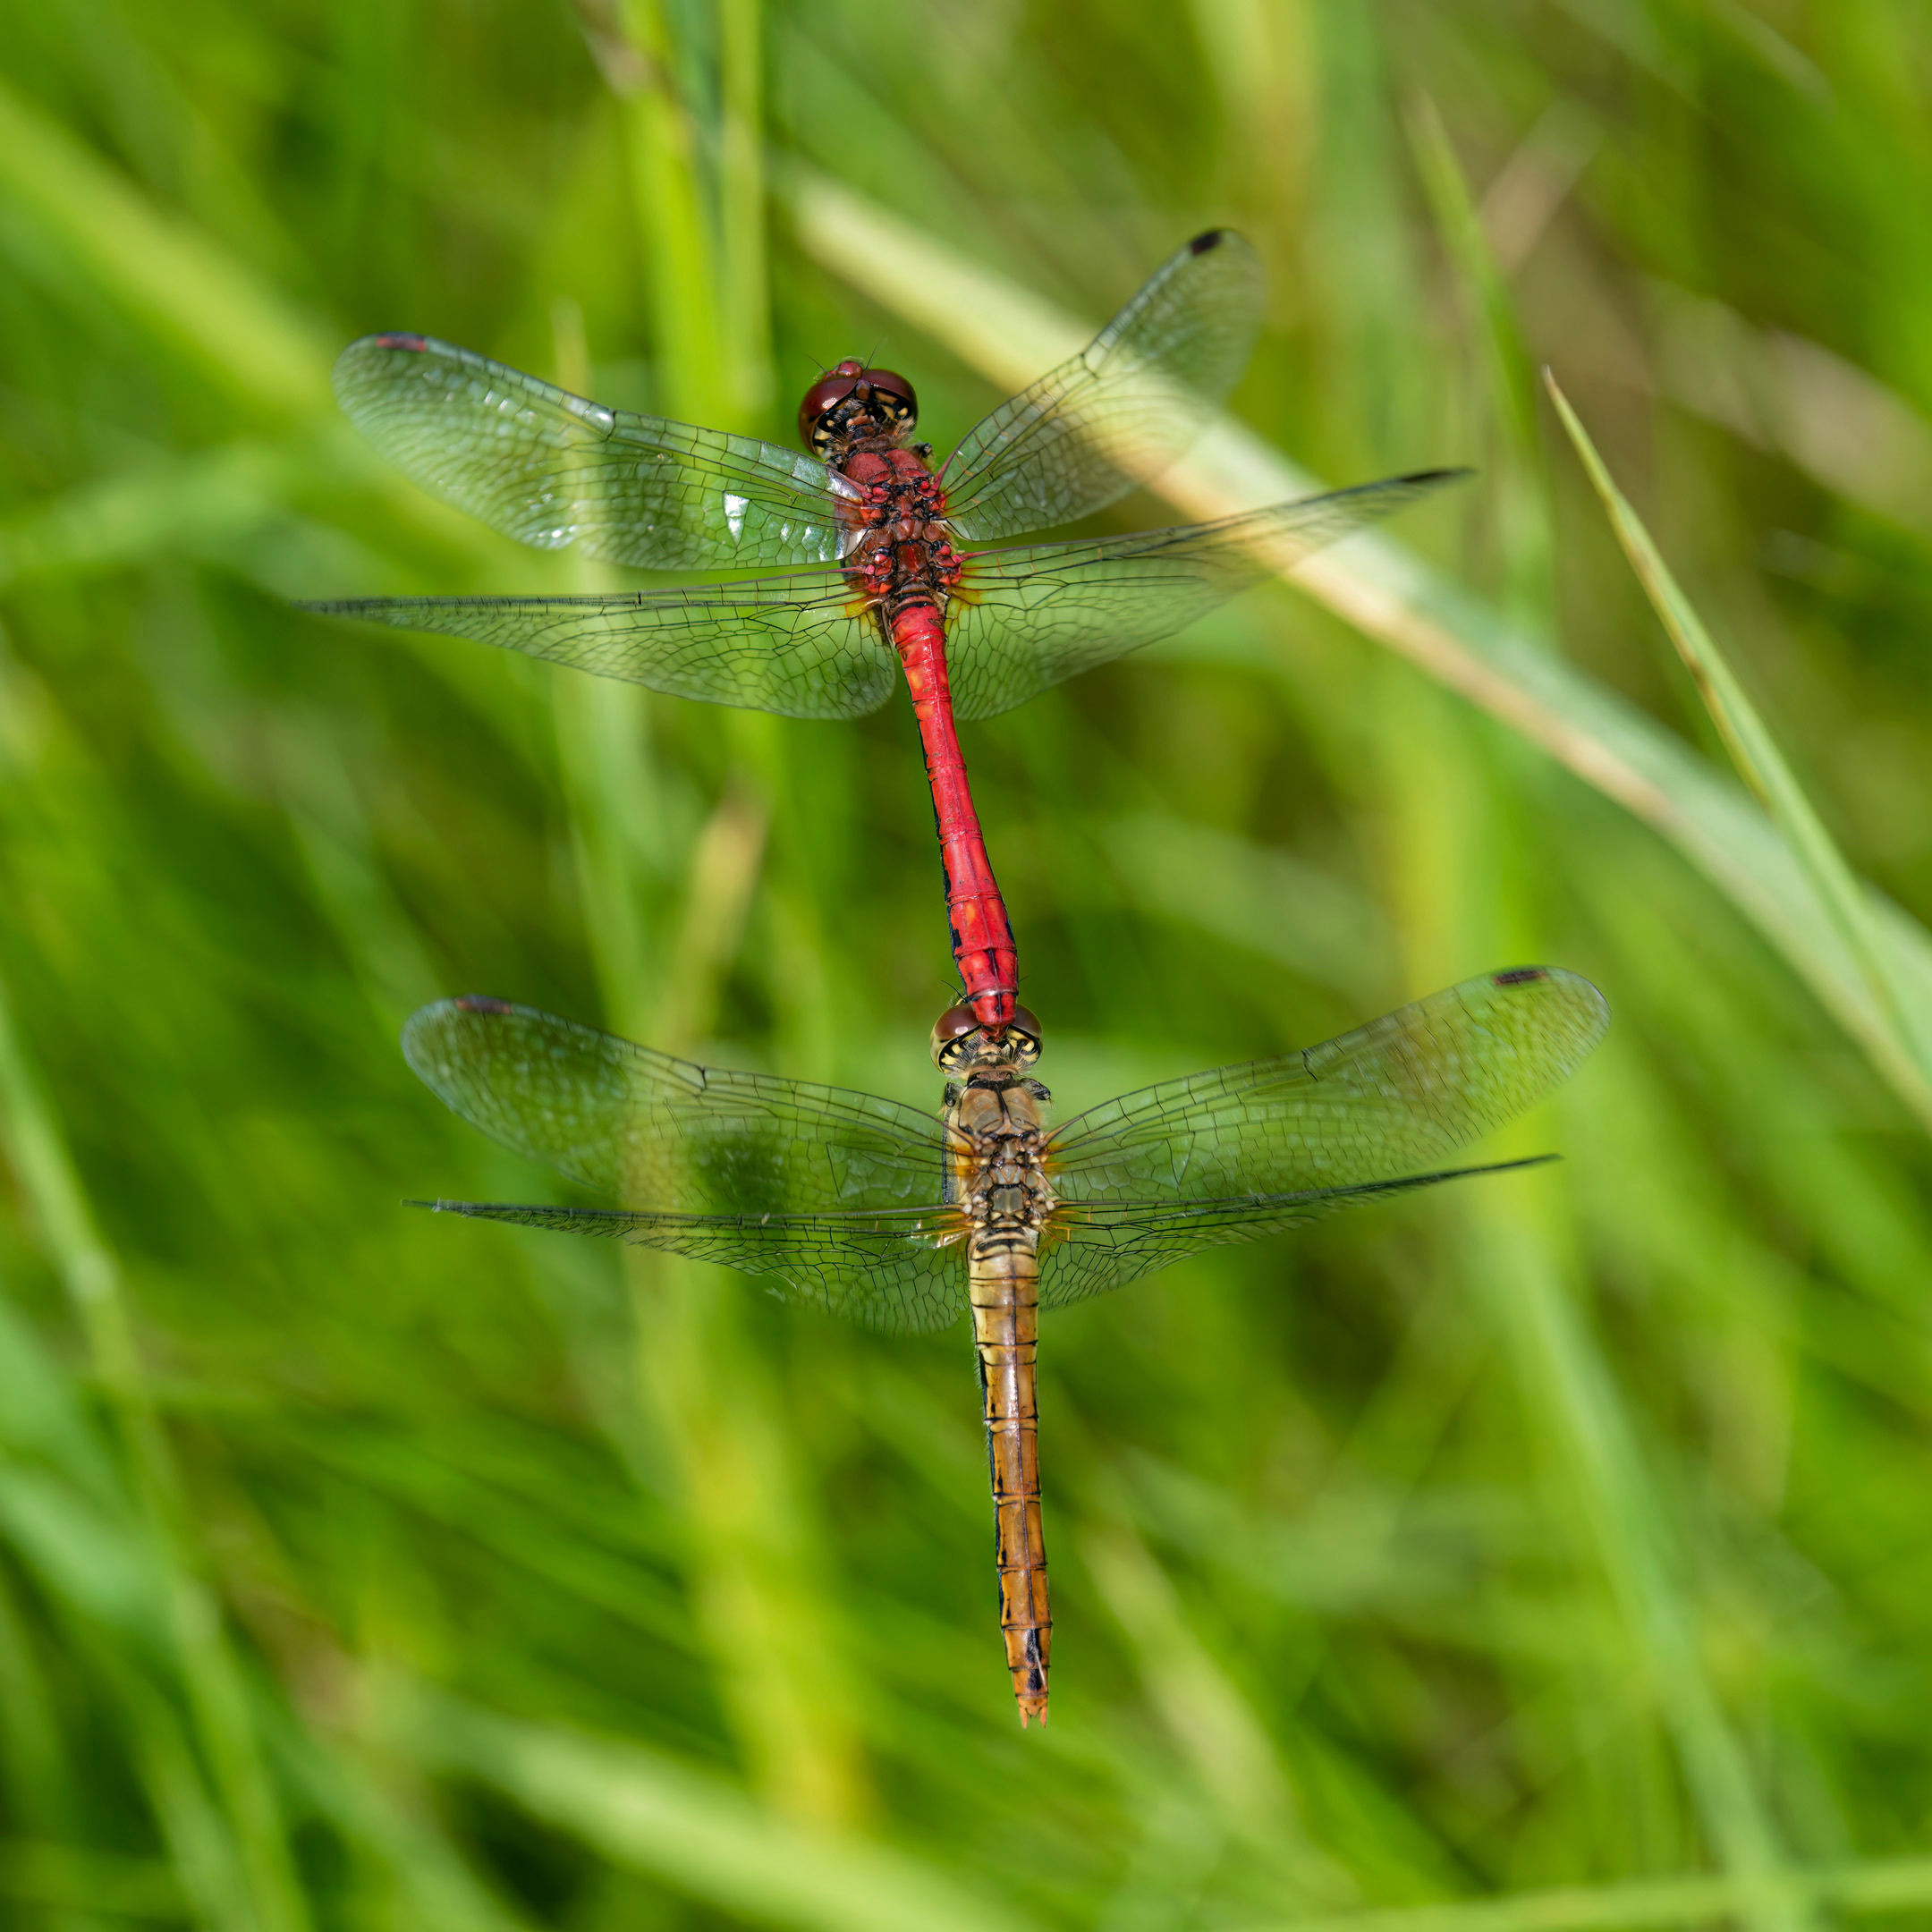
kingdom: Animalia
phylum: Arthropoda
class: Insecta
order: Odonata
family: Libellulidae
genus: Sympetrum
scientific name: Sympetrum sanguineum
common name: Blodrød hedelibel
